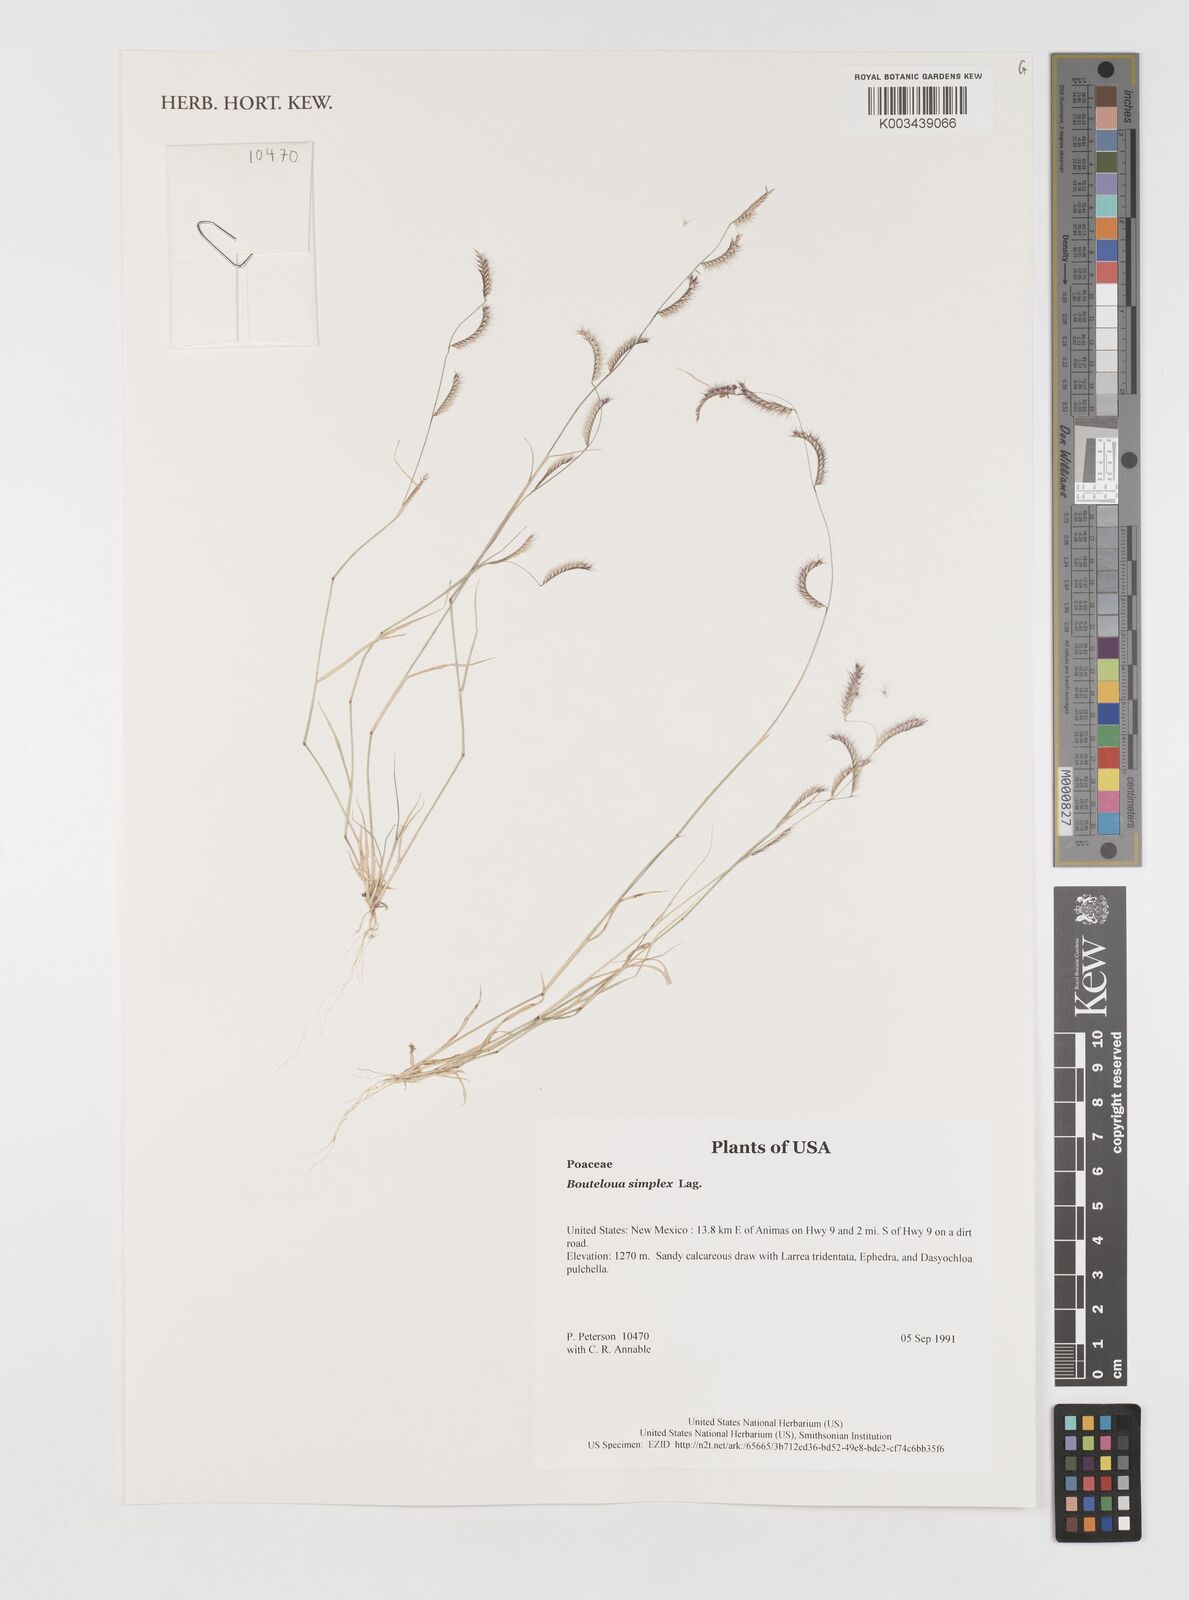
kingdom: Plantae
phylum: Tracheophyta
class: Liliopsida
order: Poales
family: Poaceae
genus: Bouteloua
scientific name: Bouteloua simplex
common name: Mat grama
